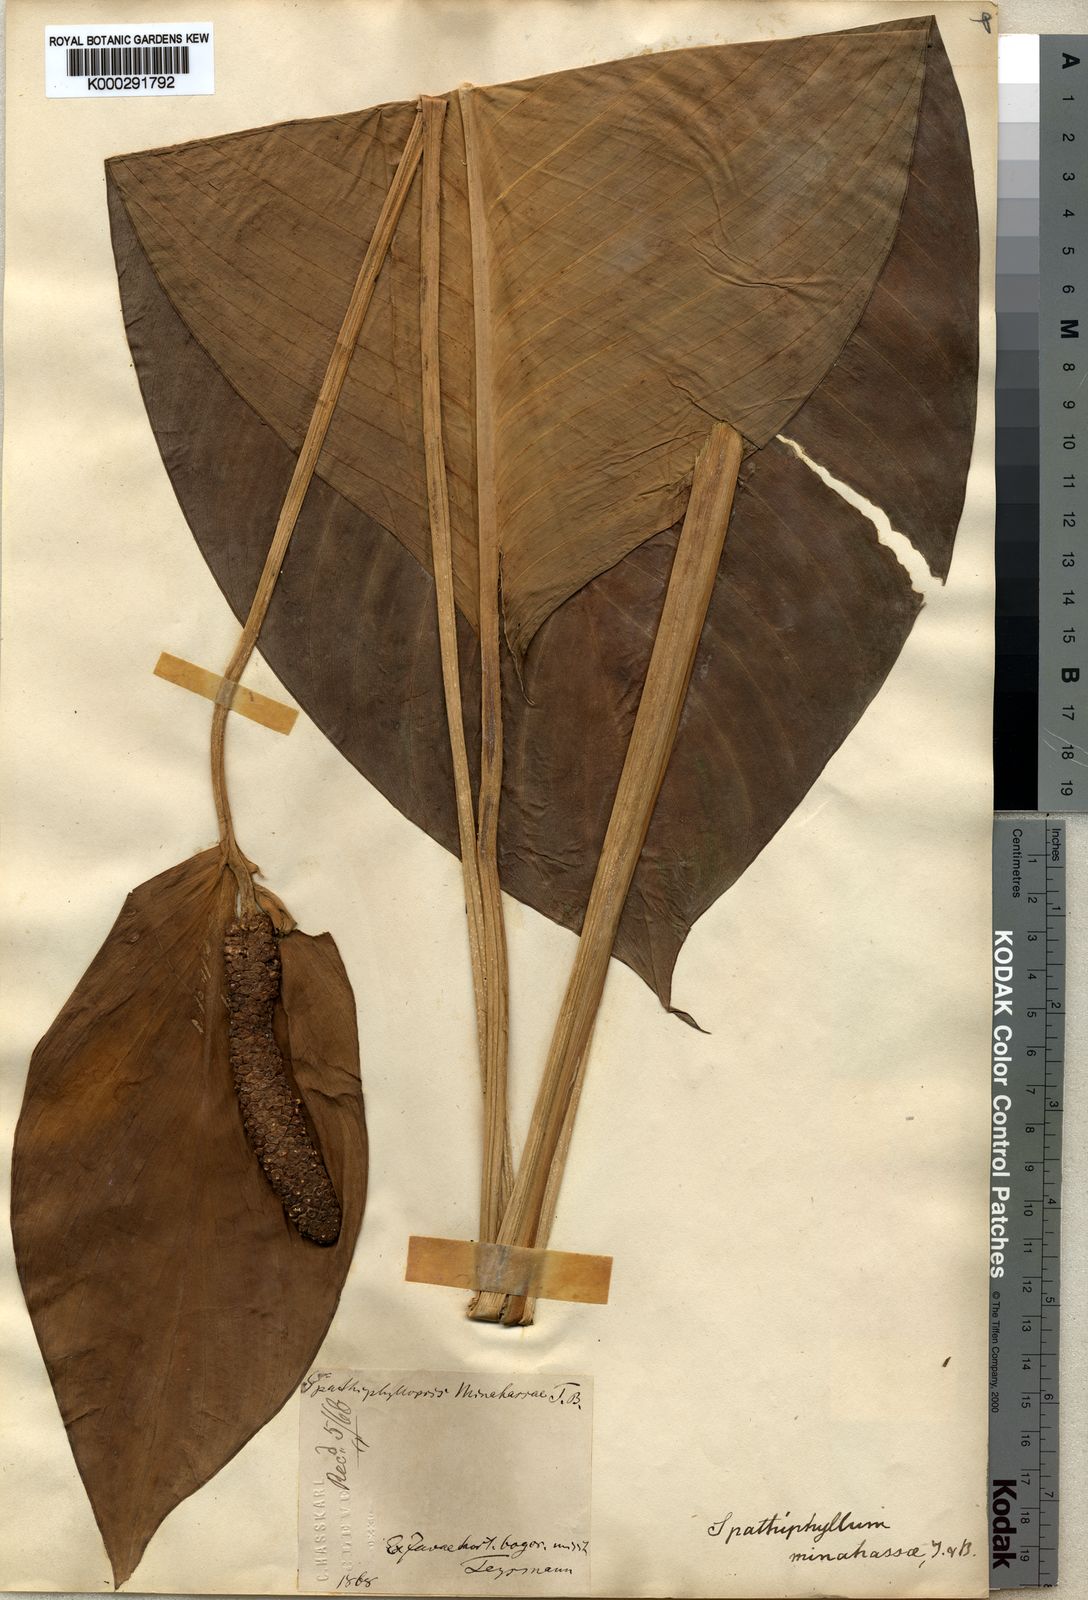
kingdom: Plantae
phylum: Tracheophyta
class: Liliopsida
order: Alismatales
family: Araceae
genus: Spathiphyllum
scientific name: Spathiphyllum commutatum
